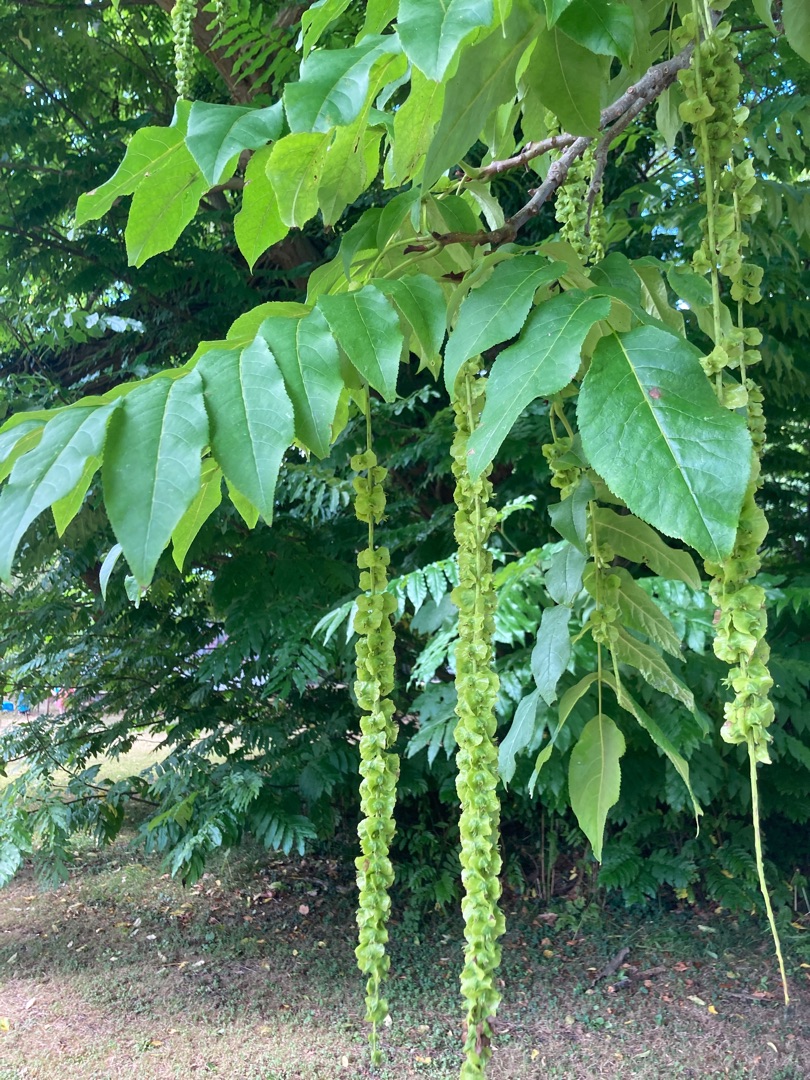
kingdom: Plantae
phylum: Tracheophyta
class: Magnoliopsida
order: Fagales
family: Juglandaceae
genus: Pterocarya
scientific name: Pterocarya fraxinifolia
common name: Kaukasisk vingevalnød
